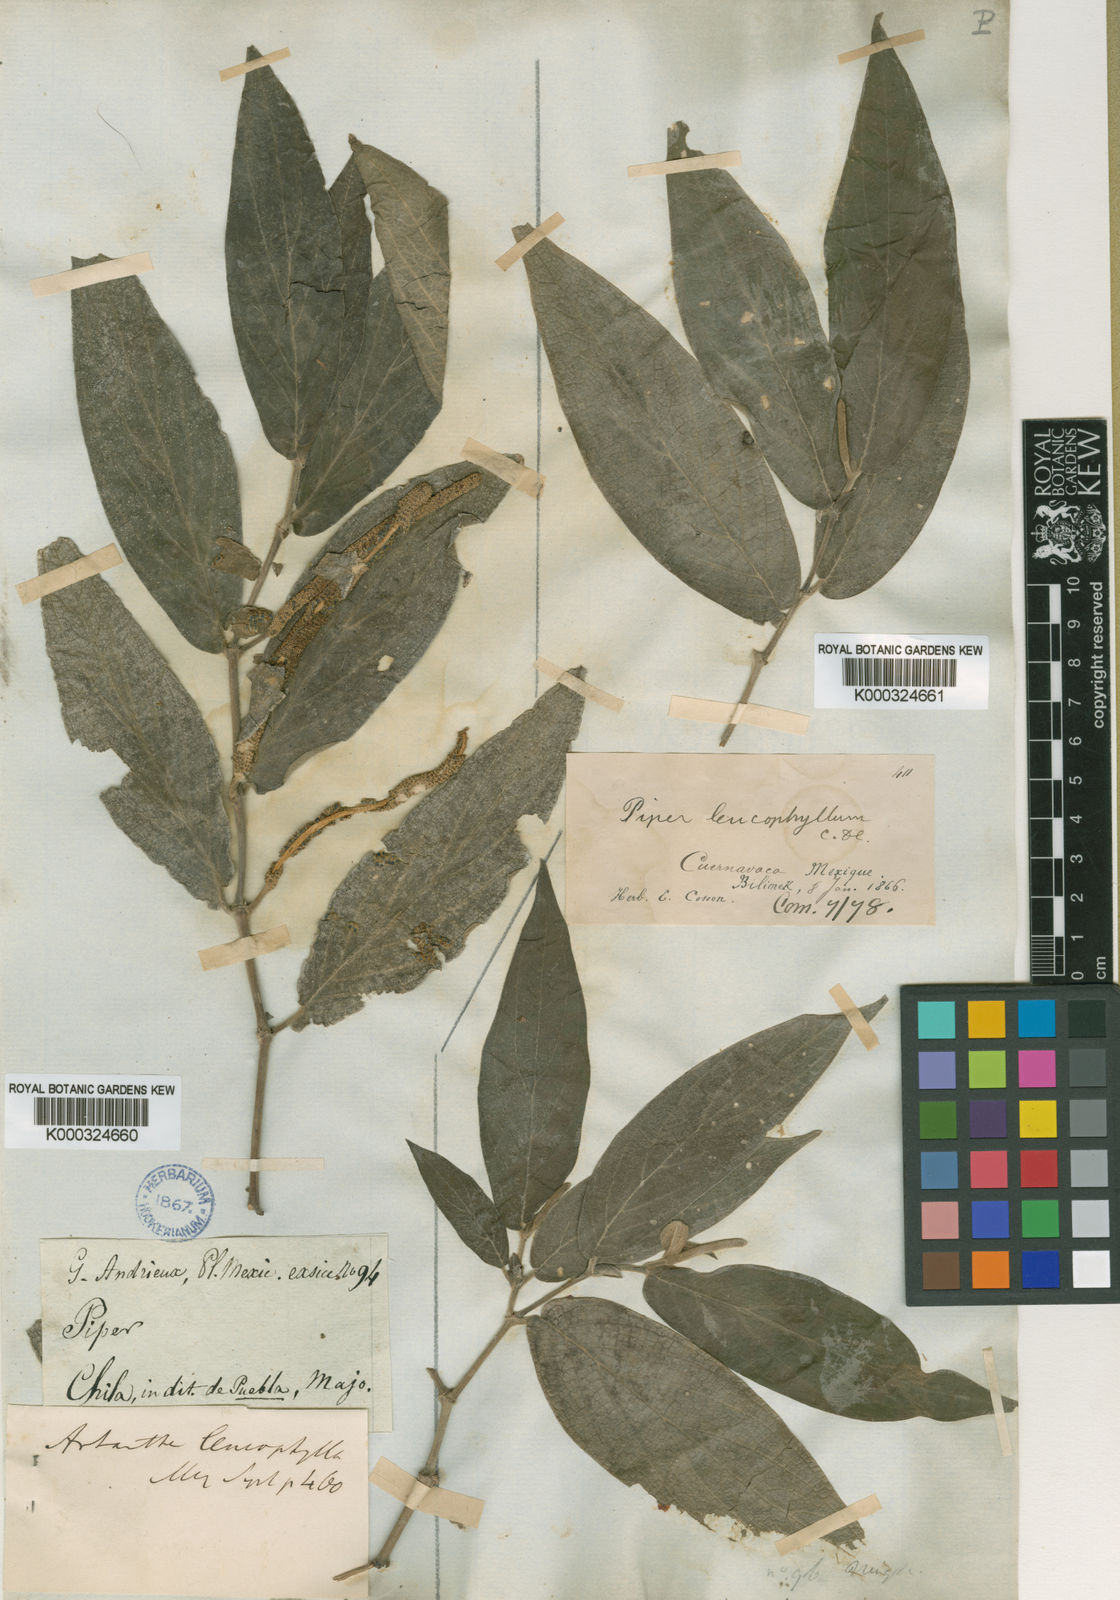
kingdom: Plantae
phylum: Tracheophyta
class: Magnoliopsida
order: Piperales
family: Piperaceae
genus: Piper
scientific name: Piper leucophyllum
